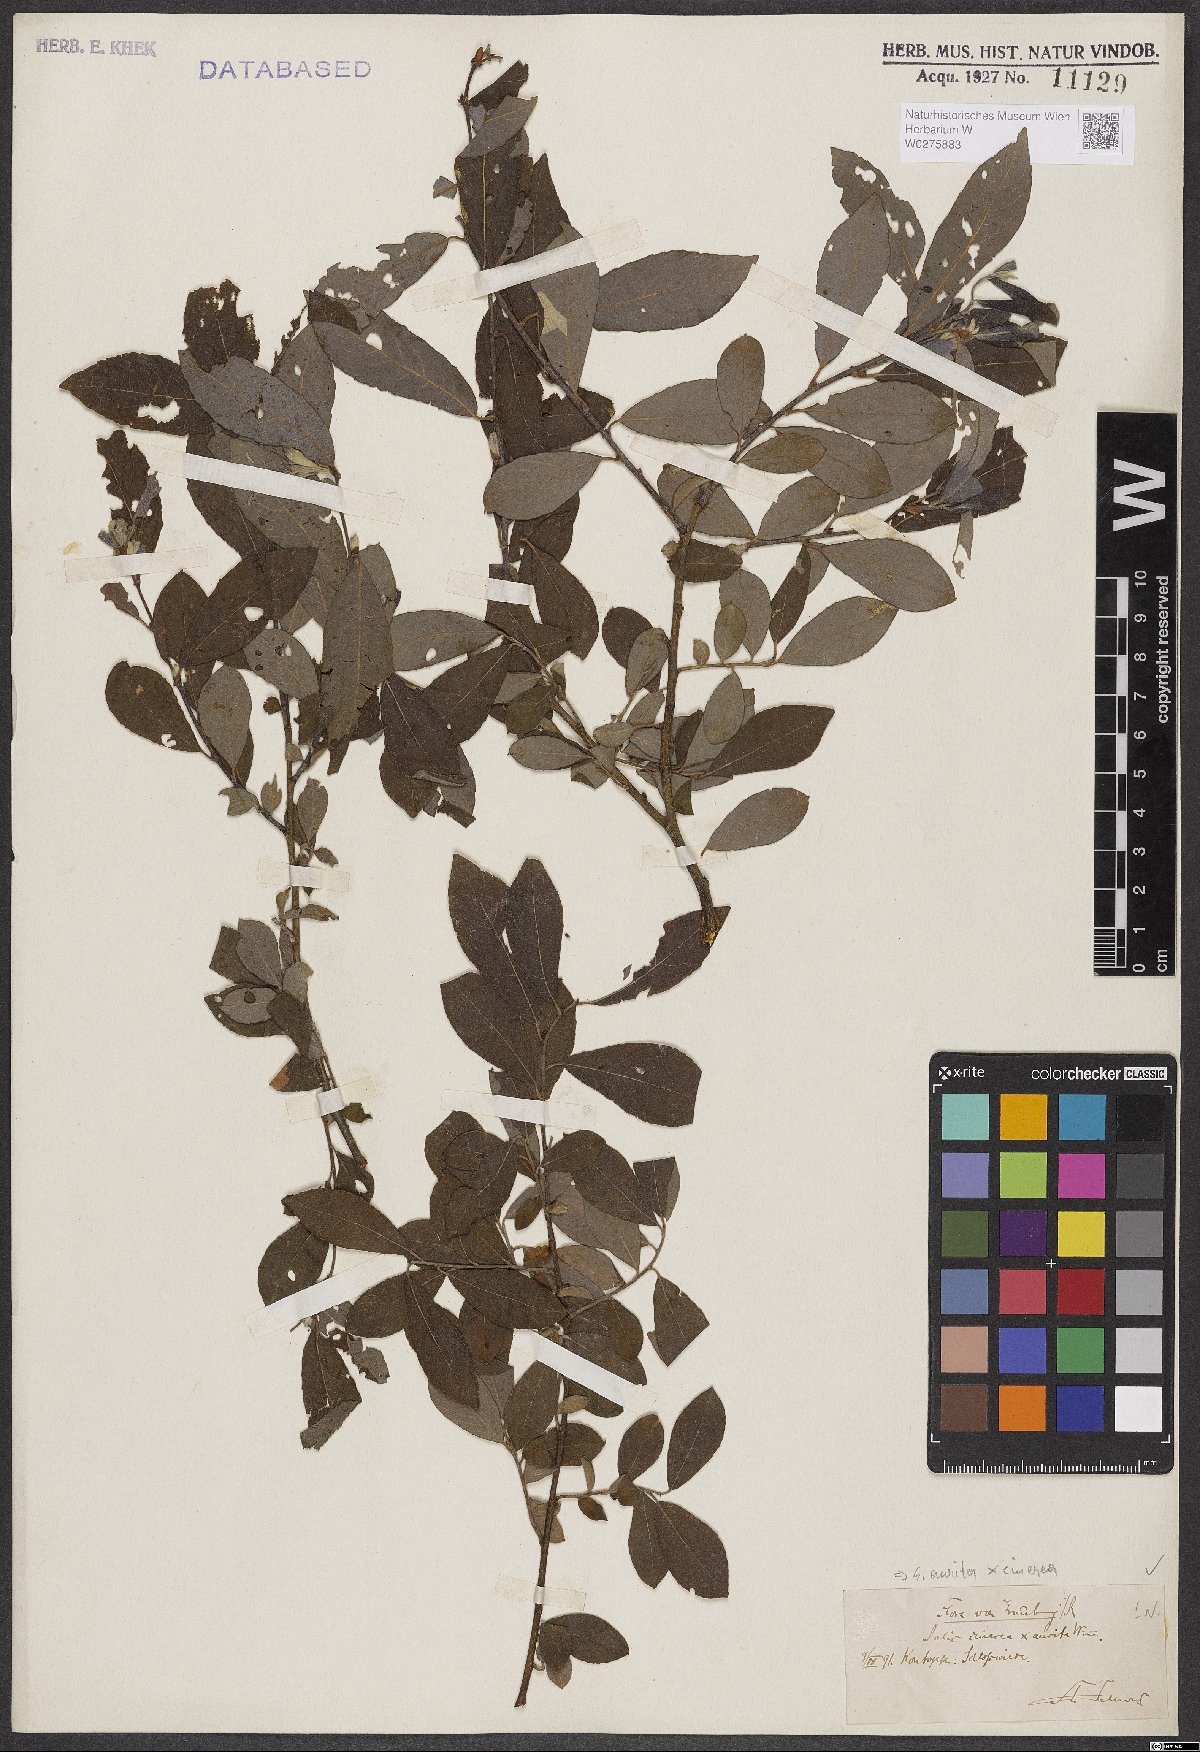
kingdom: Plantae
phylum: Tracheophyta
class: Magnoliopsida
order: Malpighiales
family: Salicaceae
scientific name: Salicaceae
